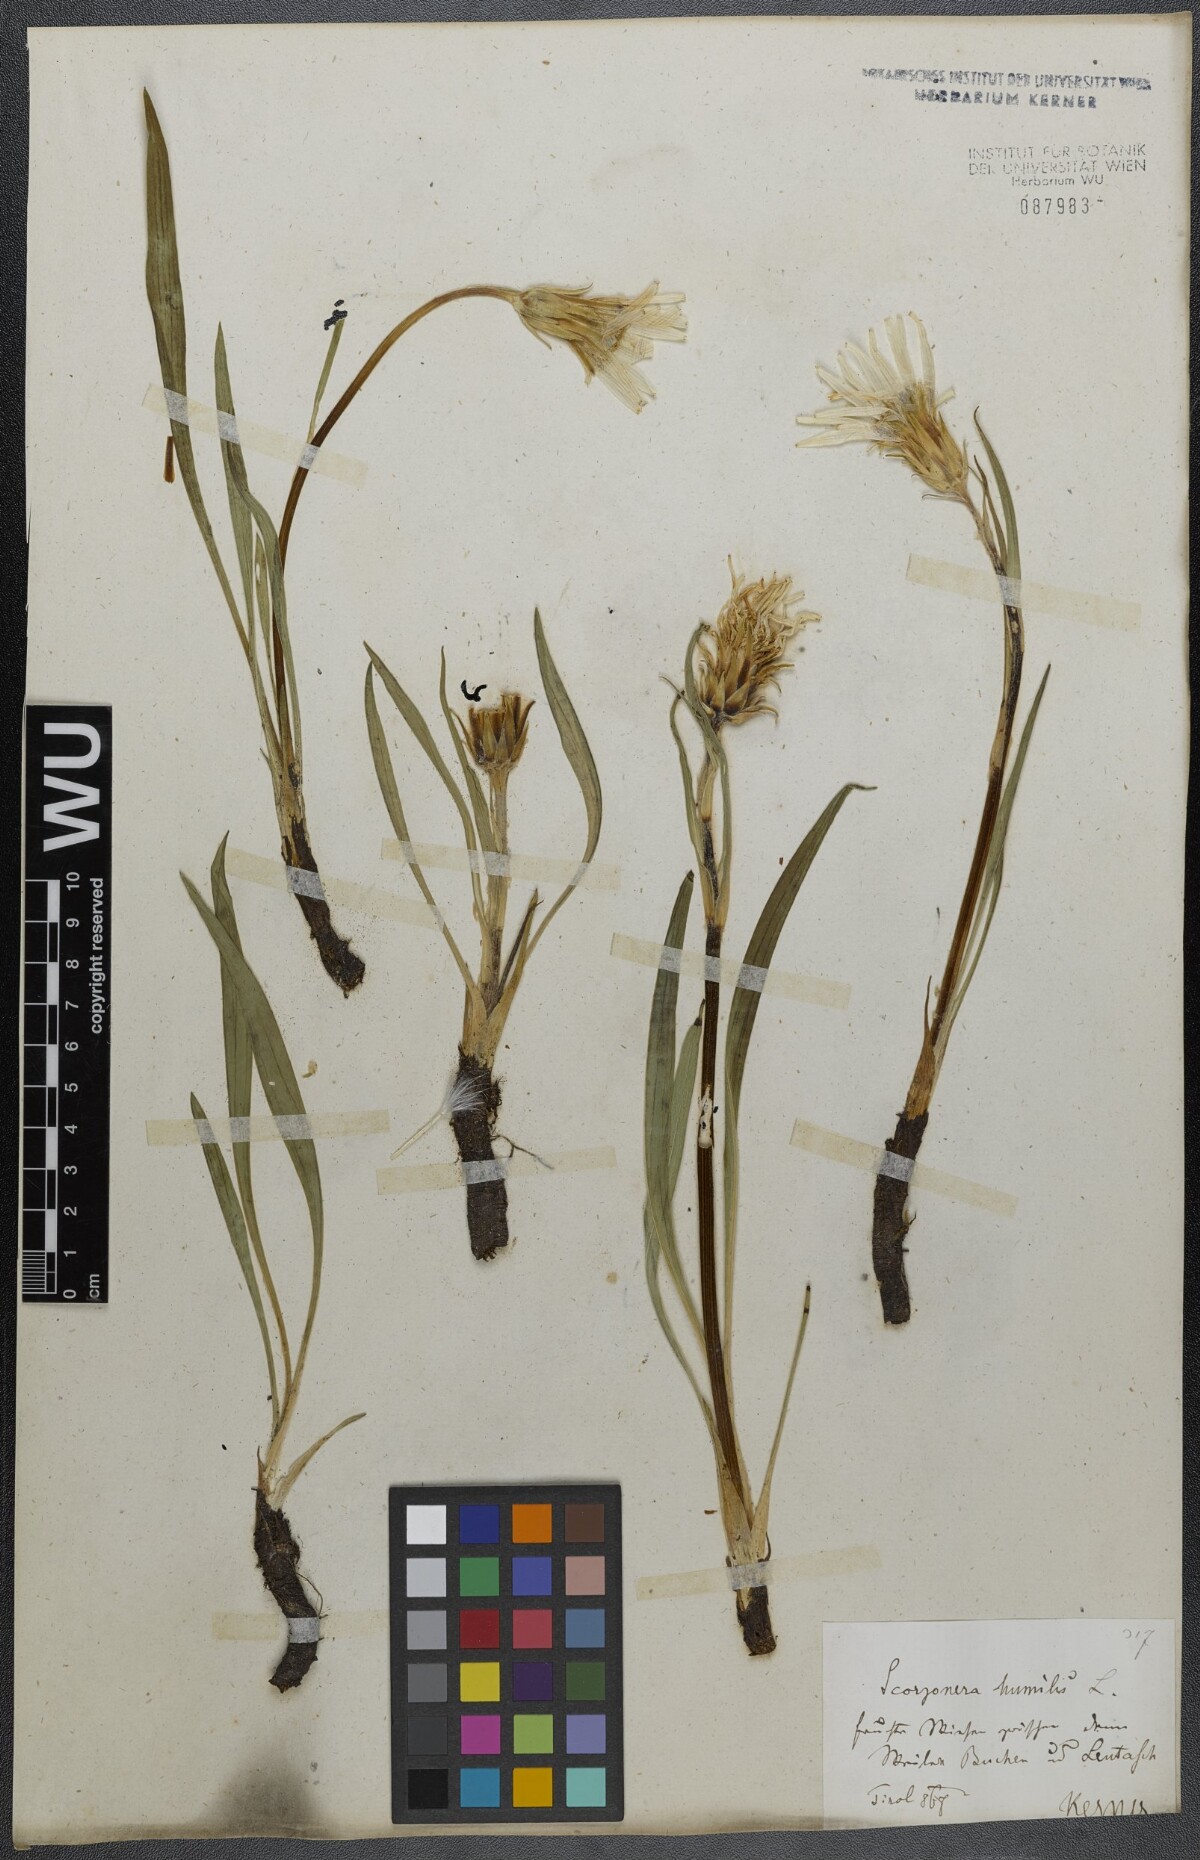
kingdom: Plantae
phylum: Tracheophyta
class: Magnoliopsida
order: Asterales
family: Asteraceae
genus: Scorzonera
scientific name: Scorzonera humilis
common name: Viper's-grass
